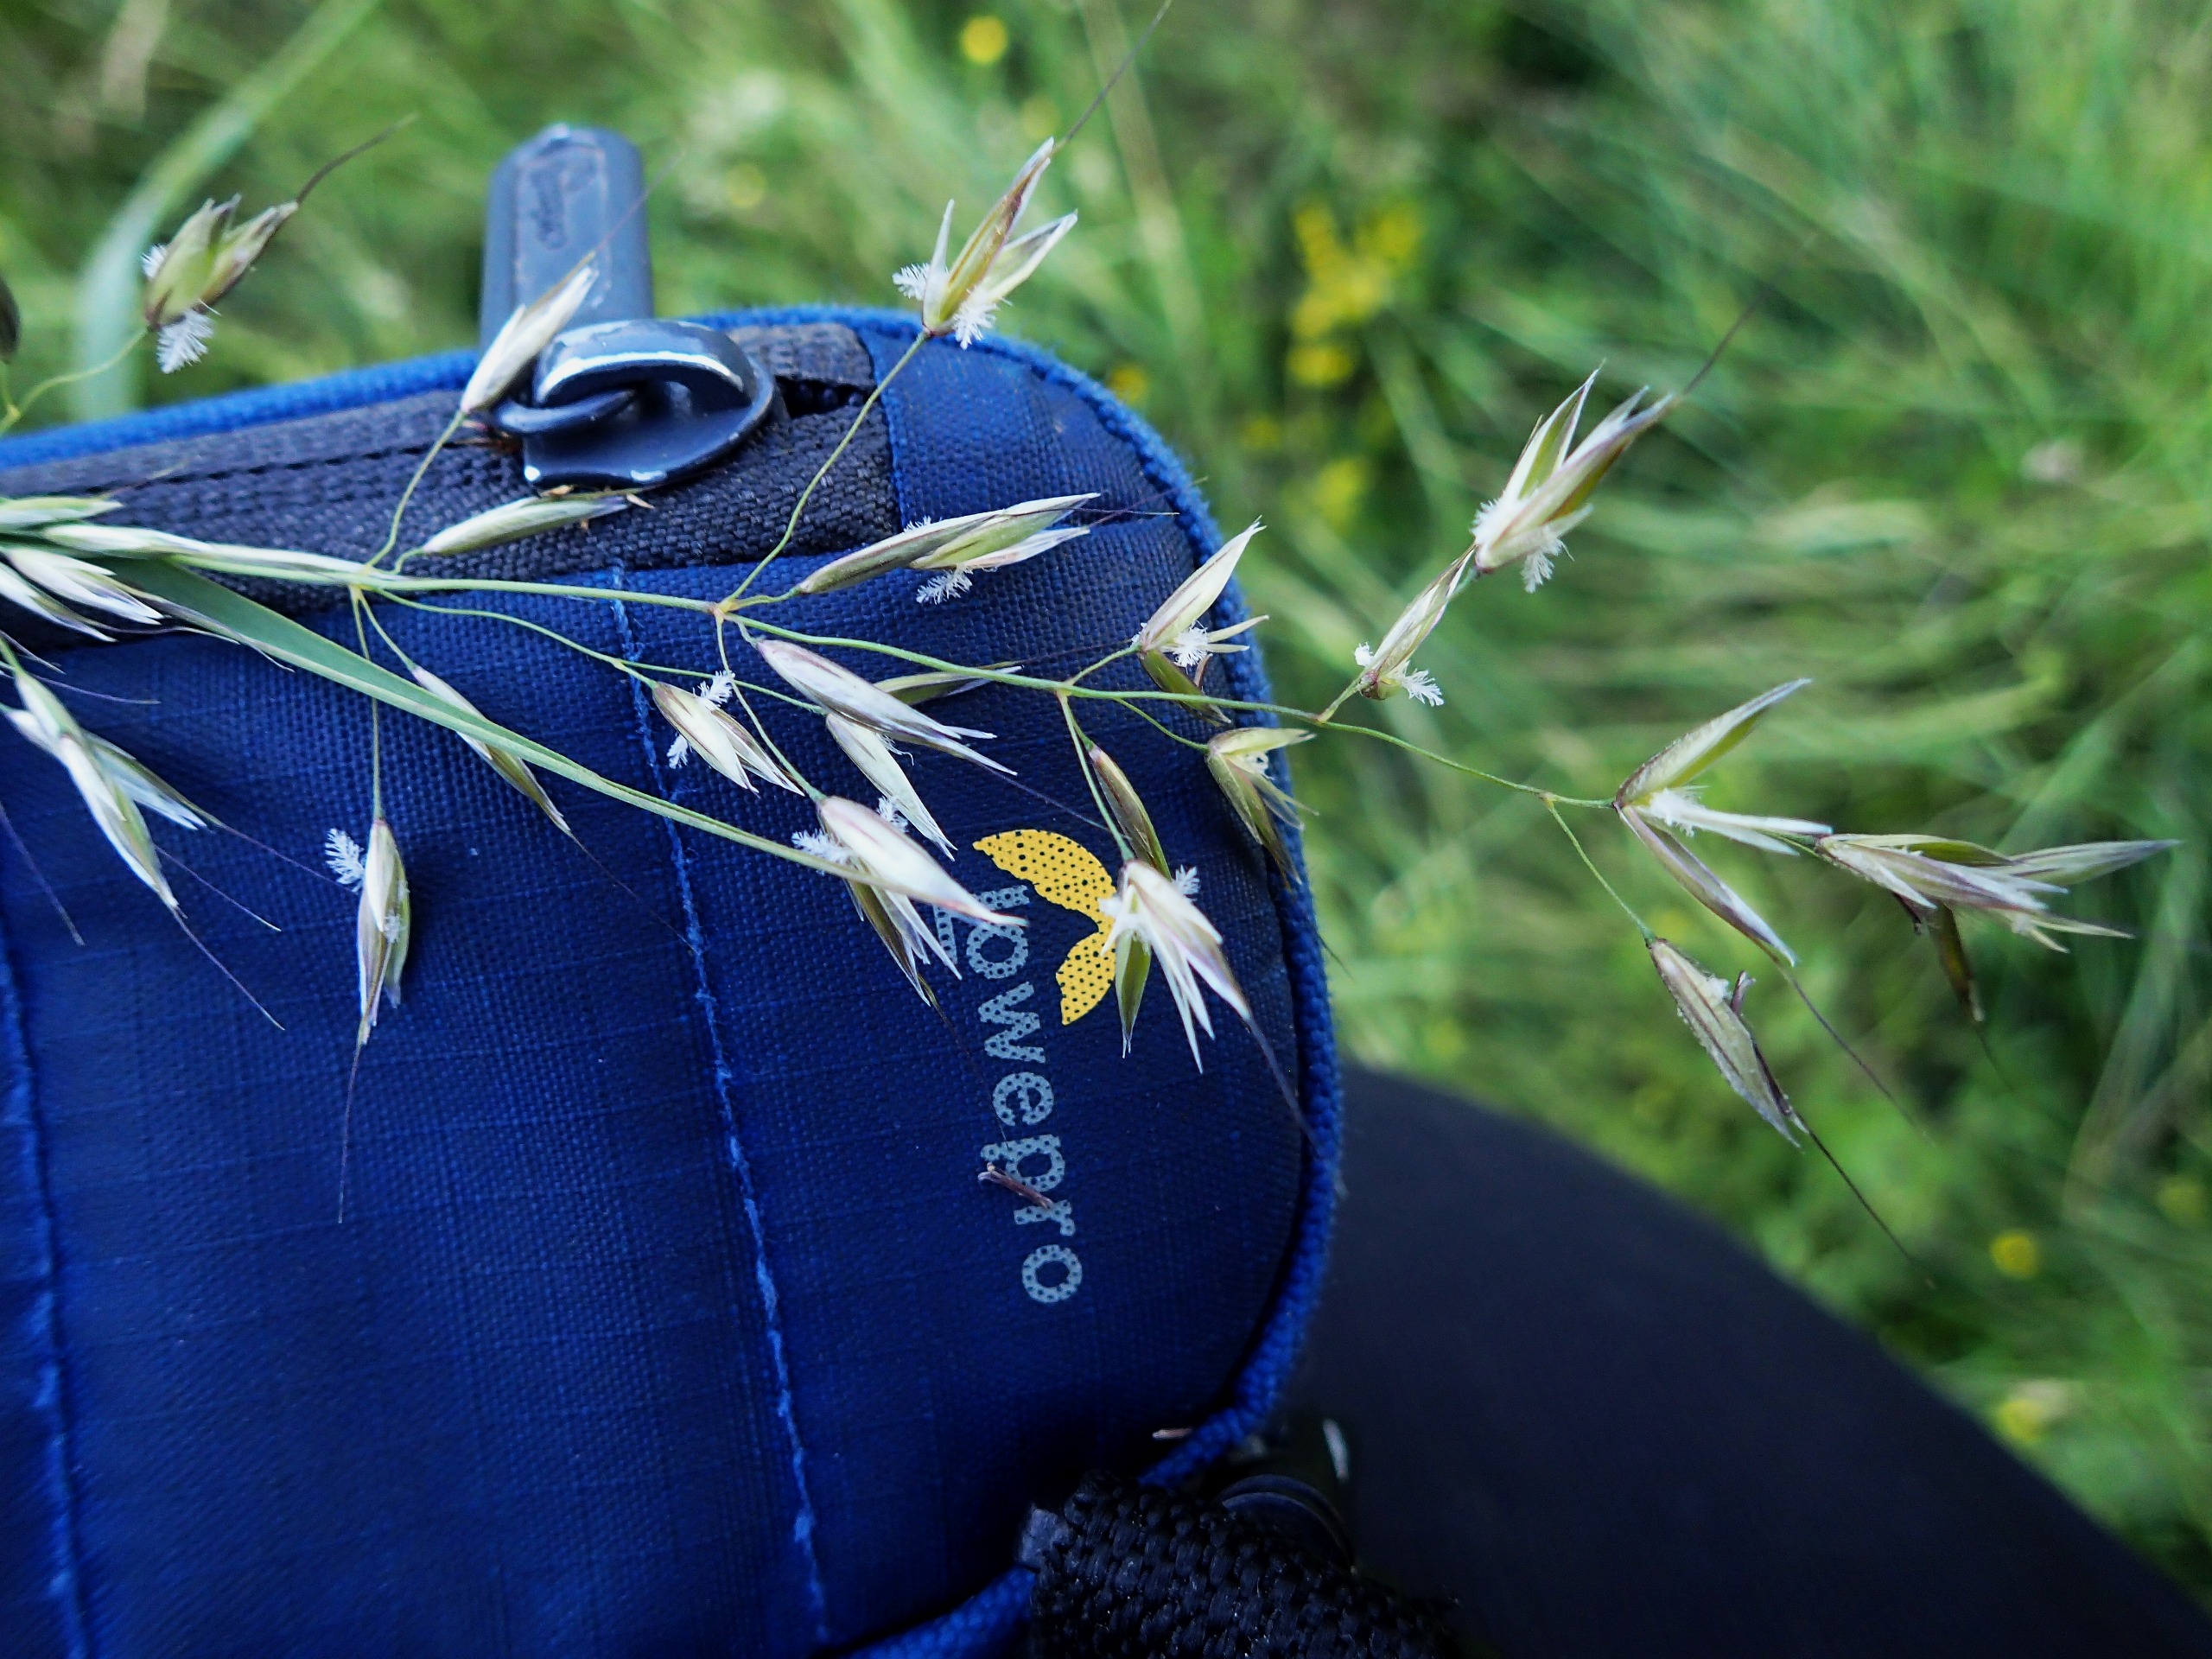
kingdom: Plantae
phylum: Tracheophyta
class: Liliopsida
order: Poales
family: Poaceae
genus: Arrhenatherum
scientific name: Arrhenatherum elatius
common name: Draphavre
